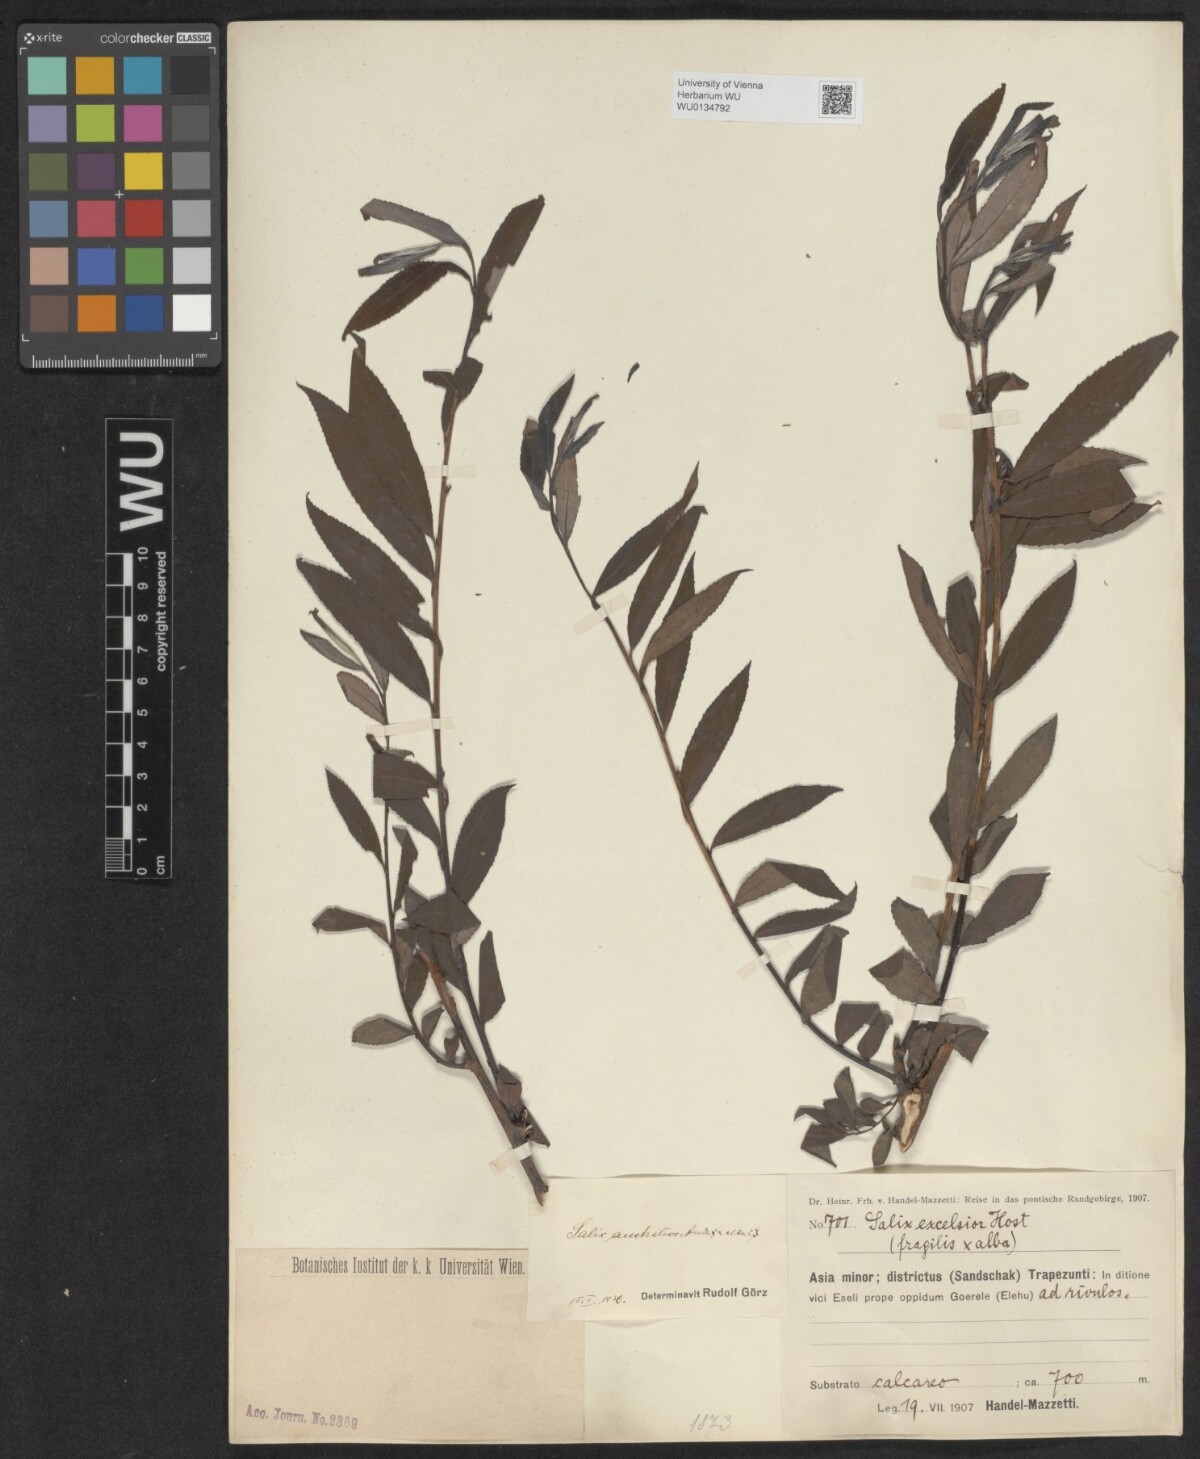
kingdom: Plantae
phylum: Tracheophyta
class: Magnoliopsida
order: Malpighiales
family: Salicaceae
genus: Salix
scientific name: Salix excelsa
